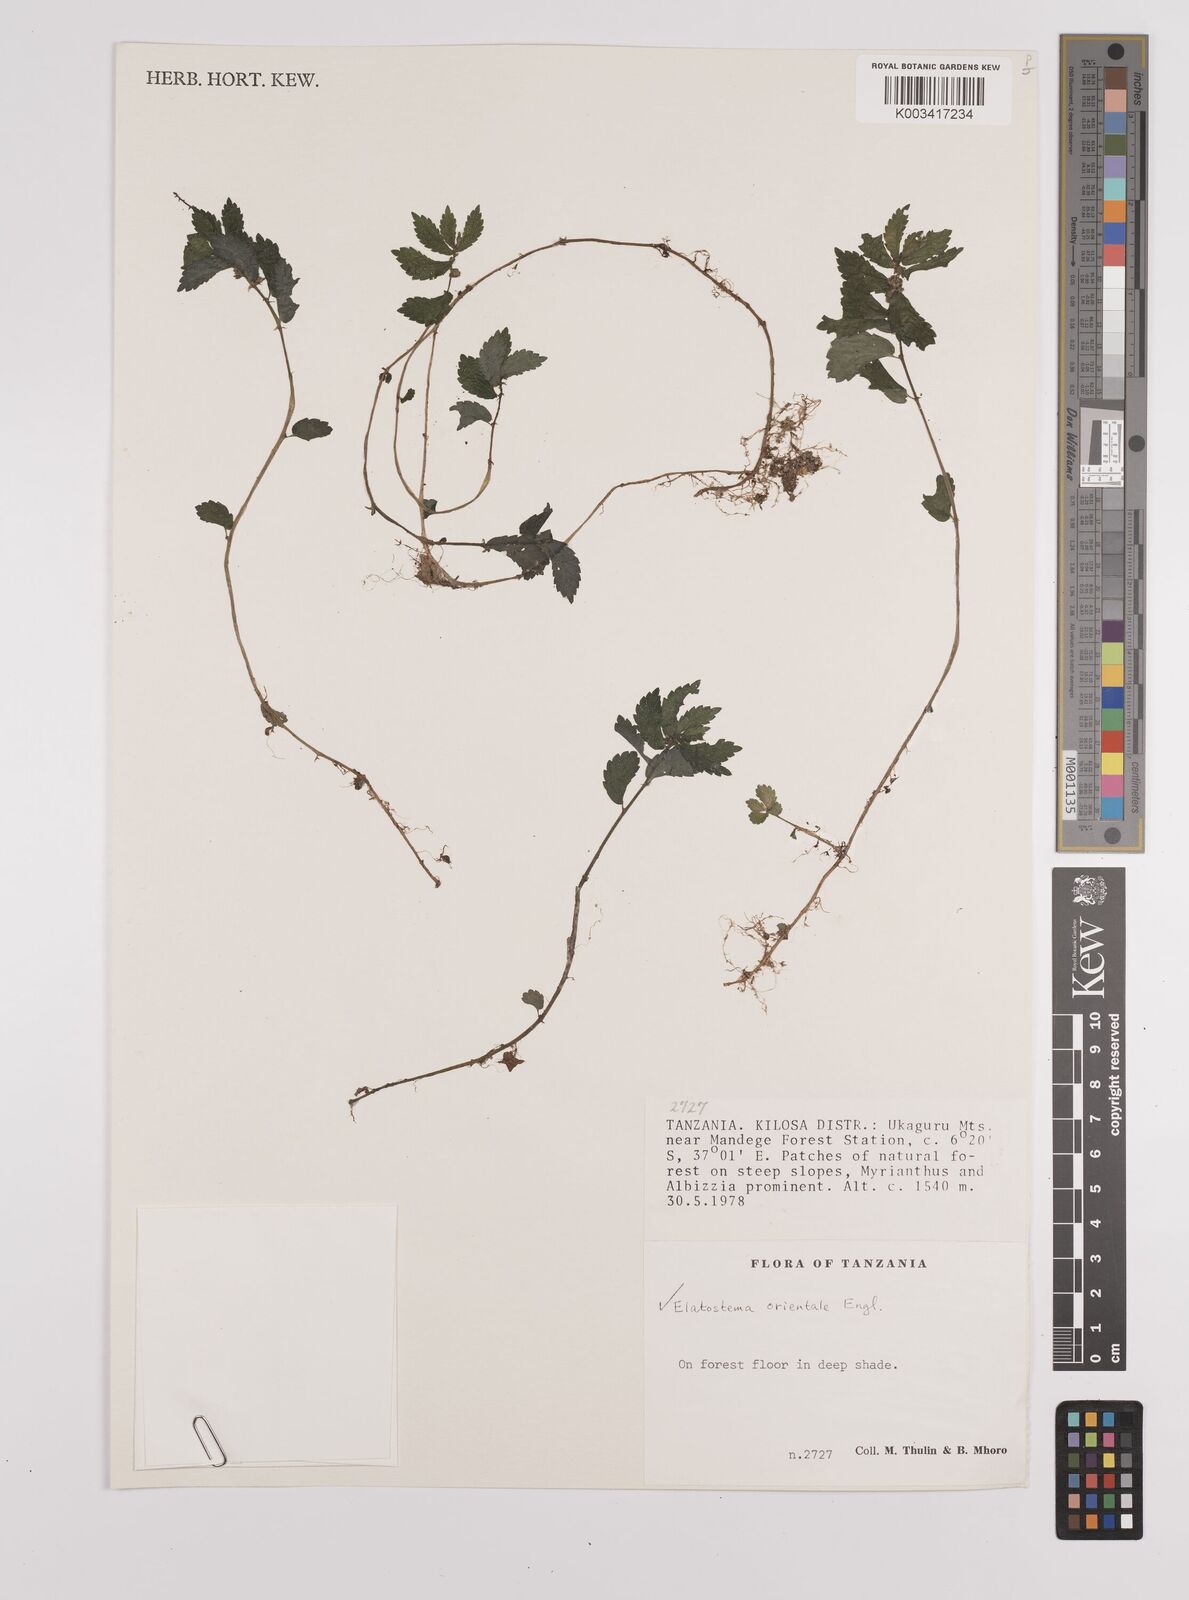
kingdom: Plantae
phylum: Tracheophyta
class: Magnoliopsida
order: Rosales
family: Urticaceae
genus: Elatostema
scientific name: Elatostema monticola
